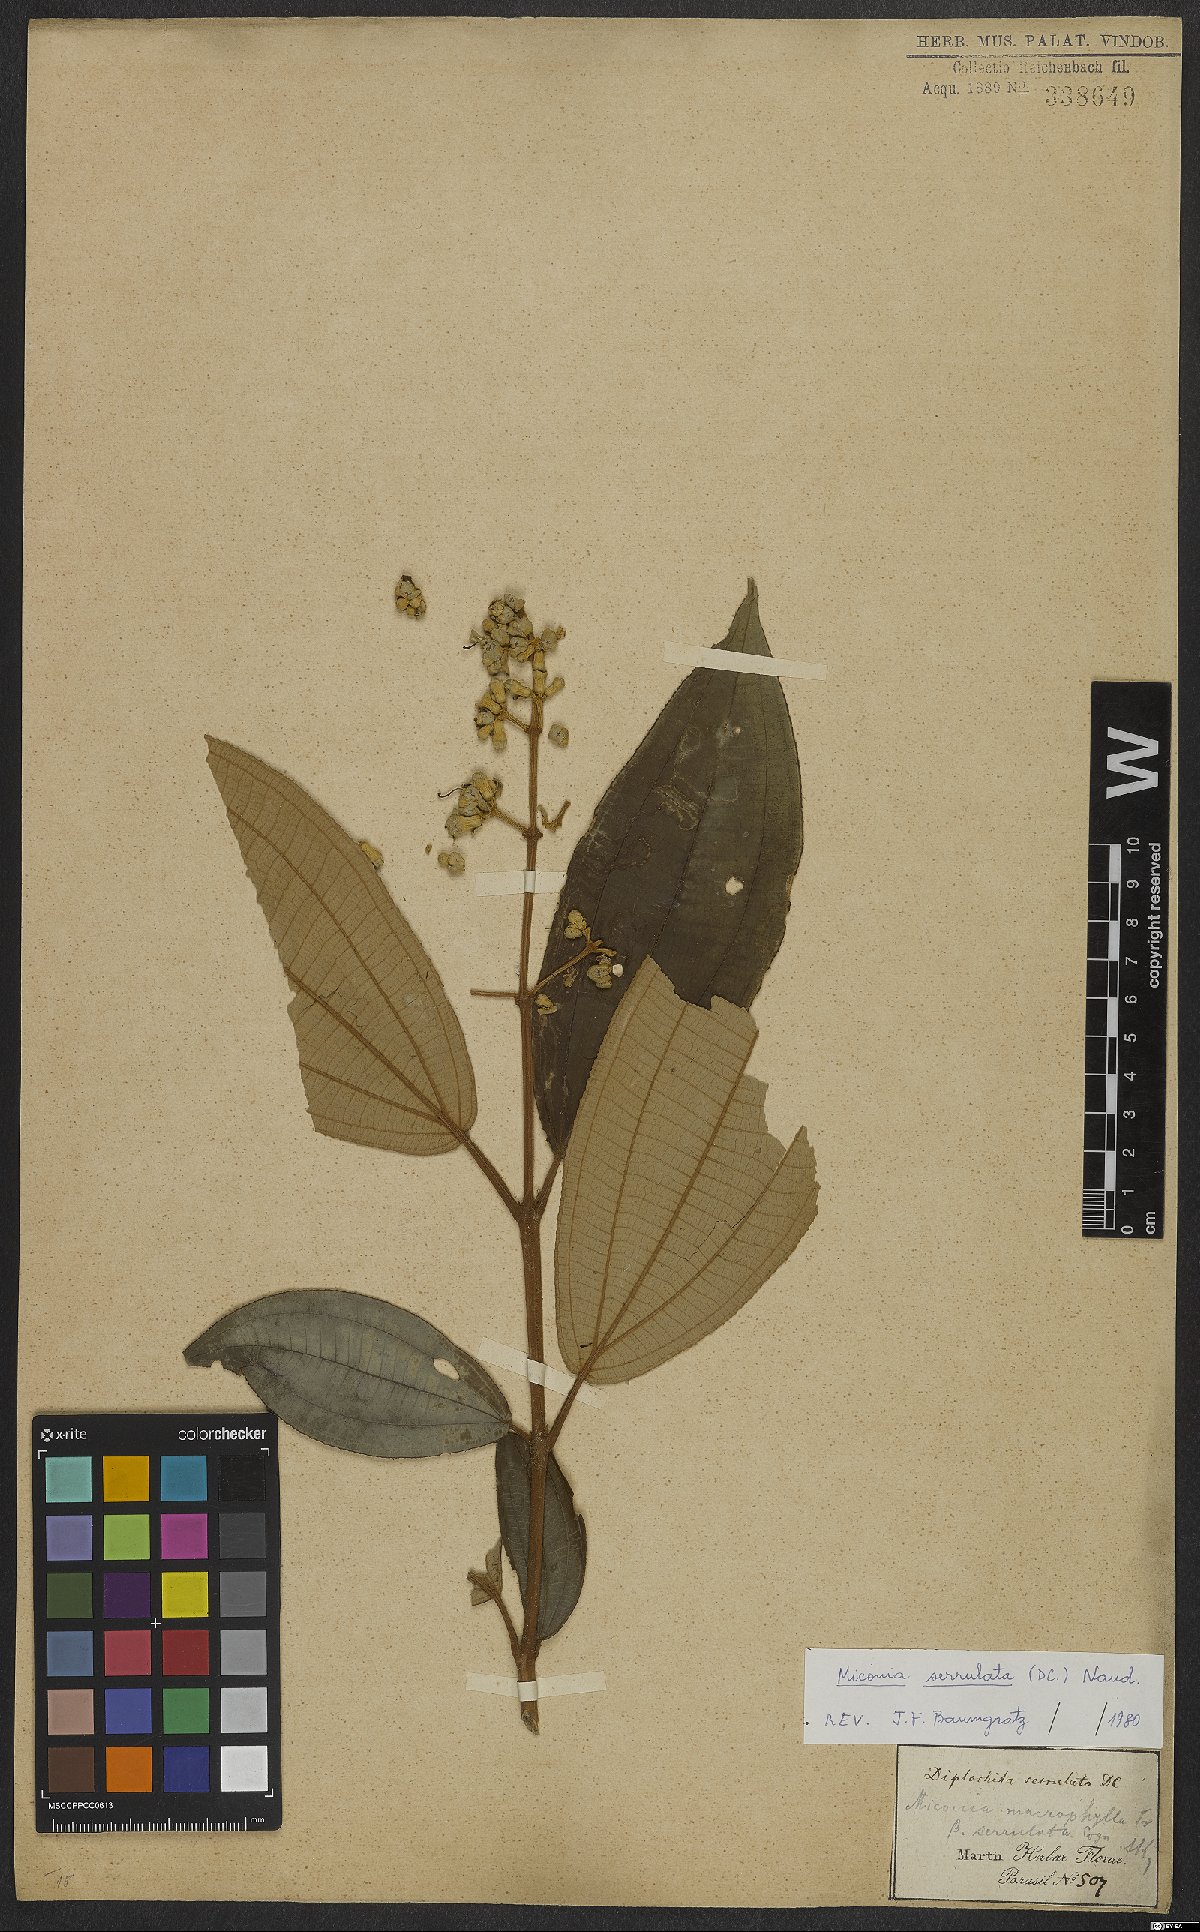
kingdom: Plantae
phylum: Tracheophyta
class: Magnoliopsida
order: Myrtales
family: Melastomataceae
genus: Miconia
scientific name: Miconia serrulata
